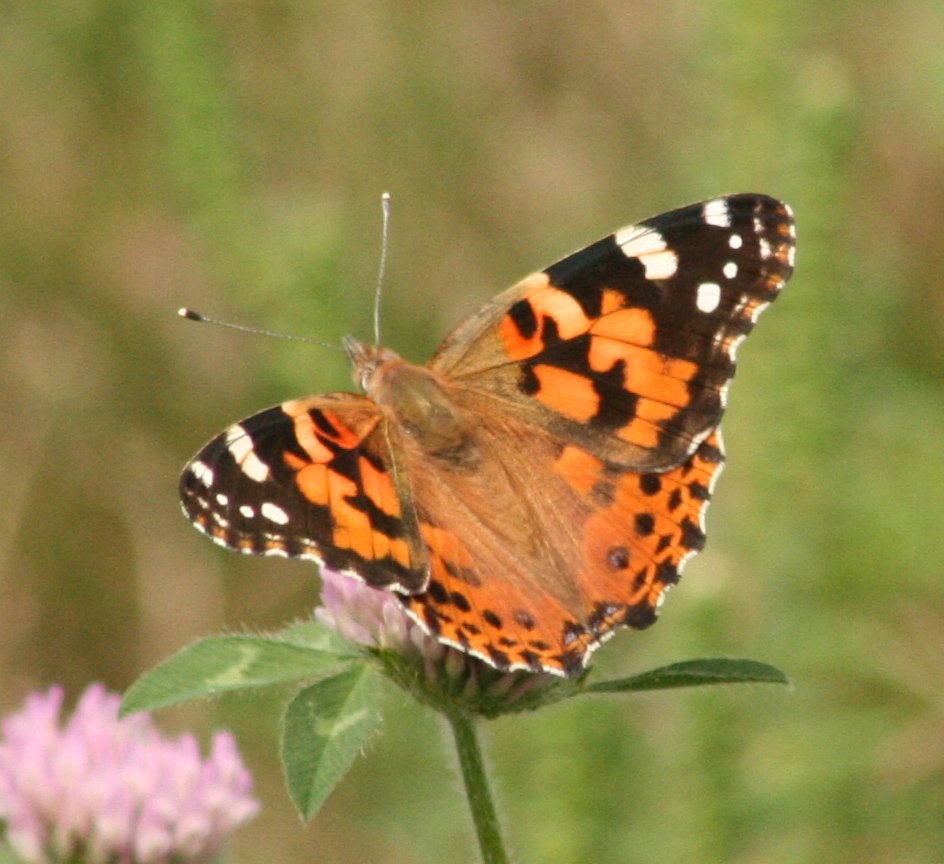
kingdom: Animalia
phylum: Arthropoda
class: Insecta
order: Lepidoptera
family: Nymphalidae
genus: Vanessa
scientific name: Vanessa cardui
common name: Painted Lady
